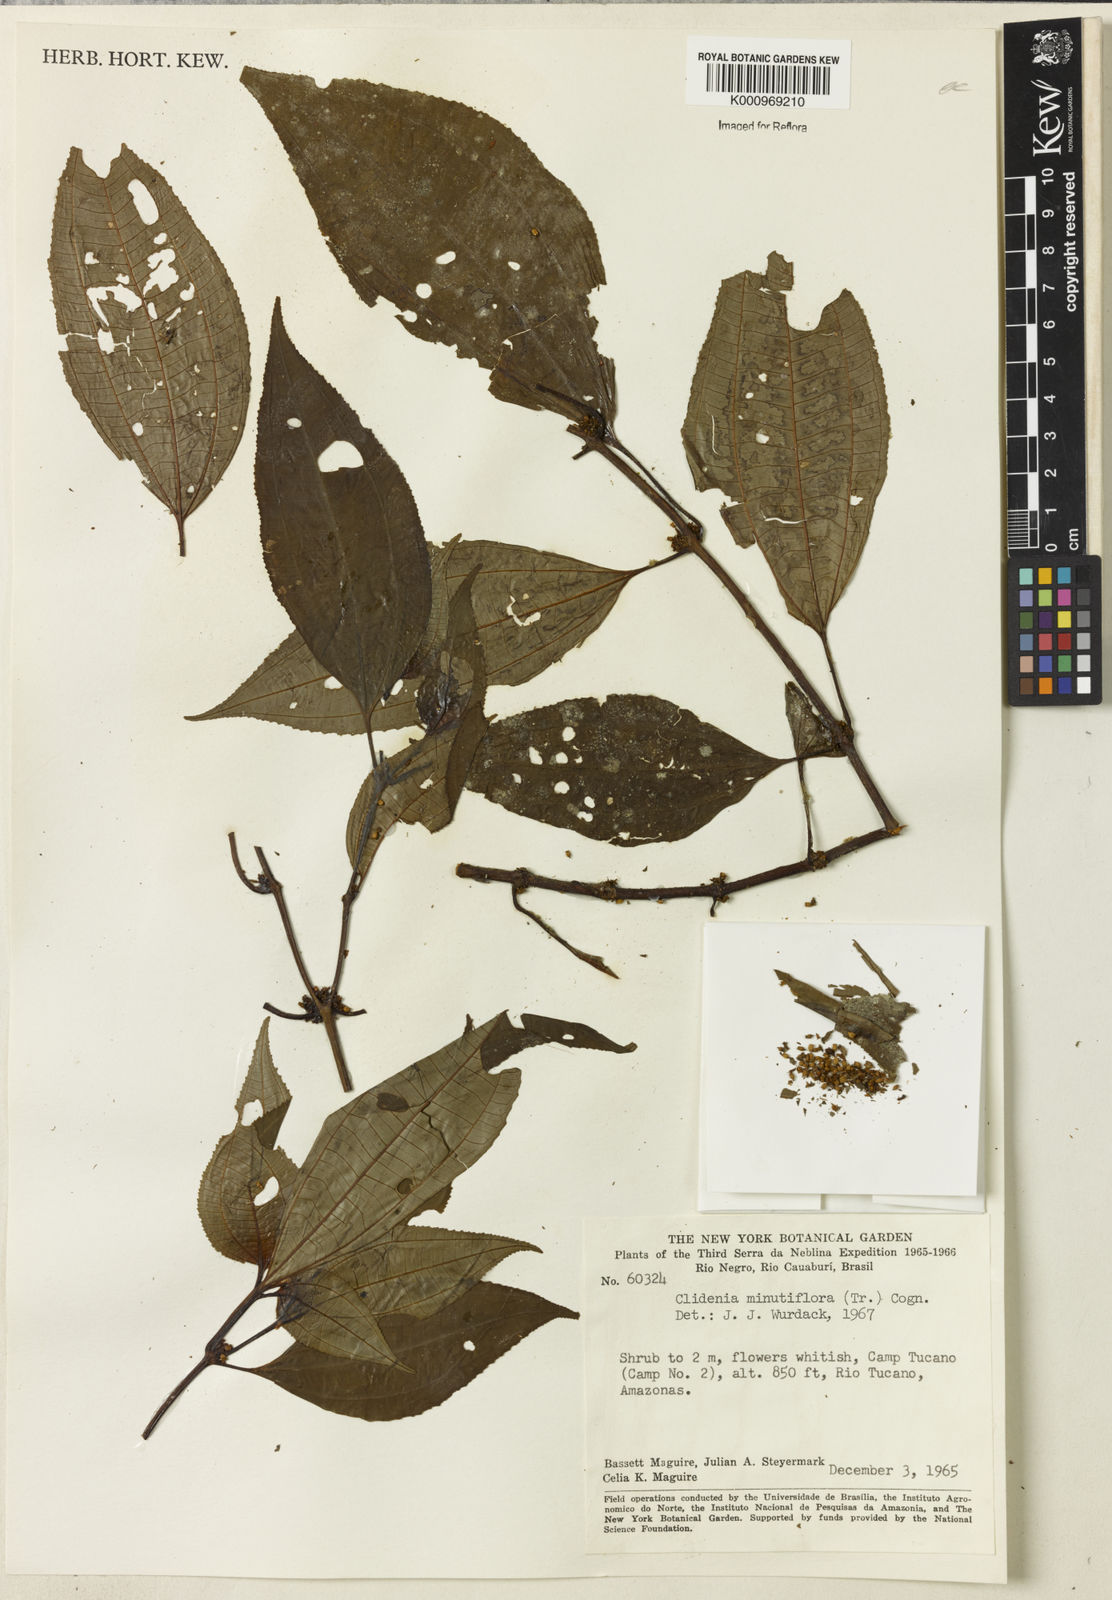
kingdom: Plantae
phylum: Tracheophyta
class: Magnoliopsida
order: Myrtales
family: Melastomataceae
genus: Miconia
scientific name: Miconia minutiflora
